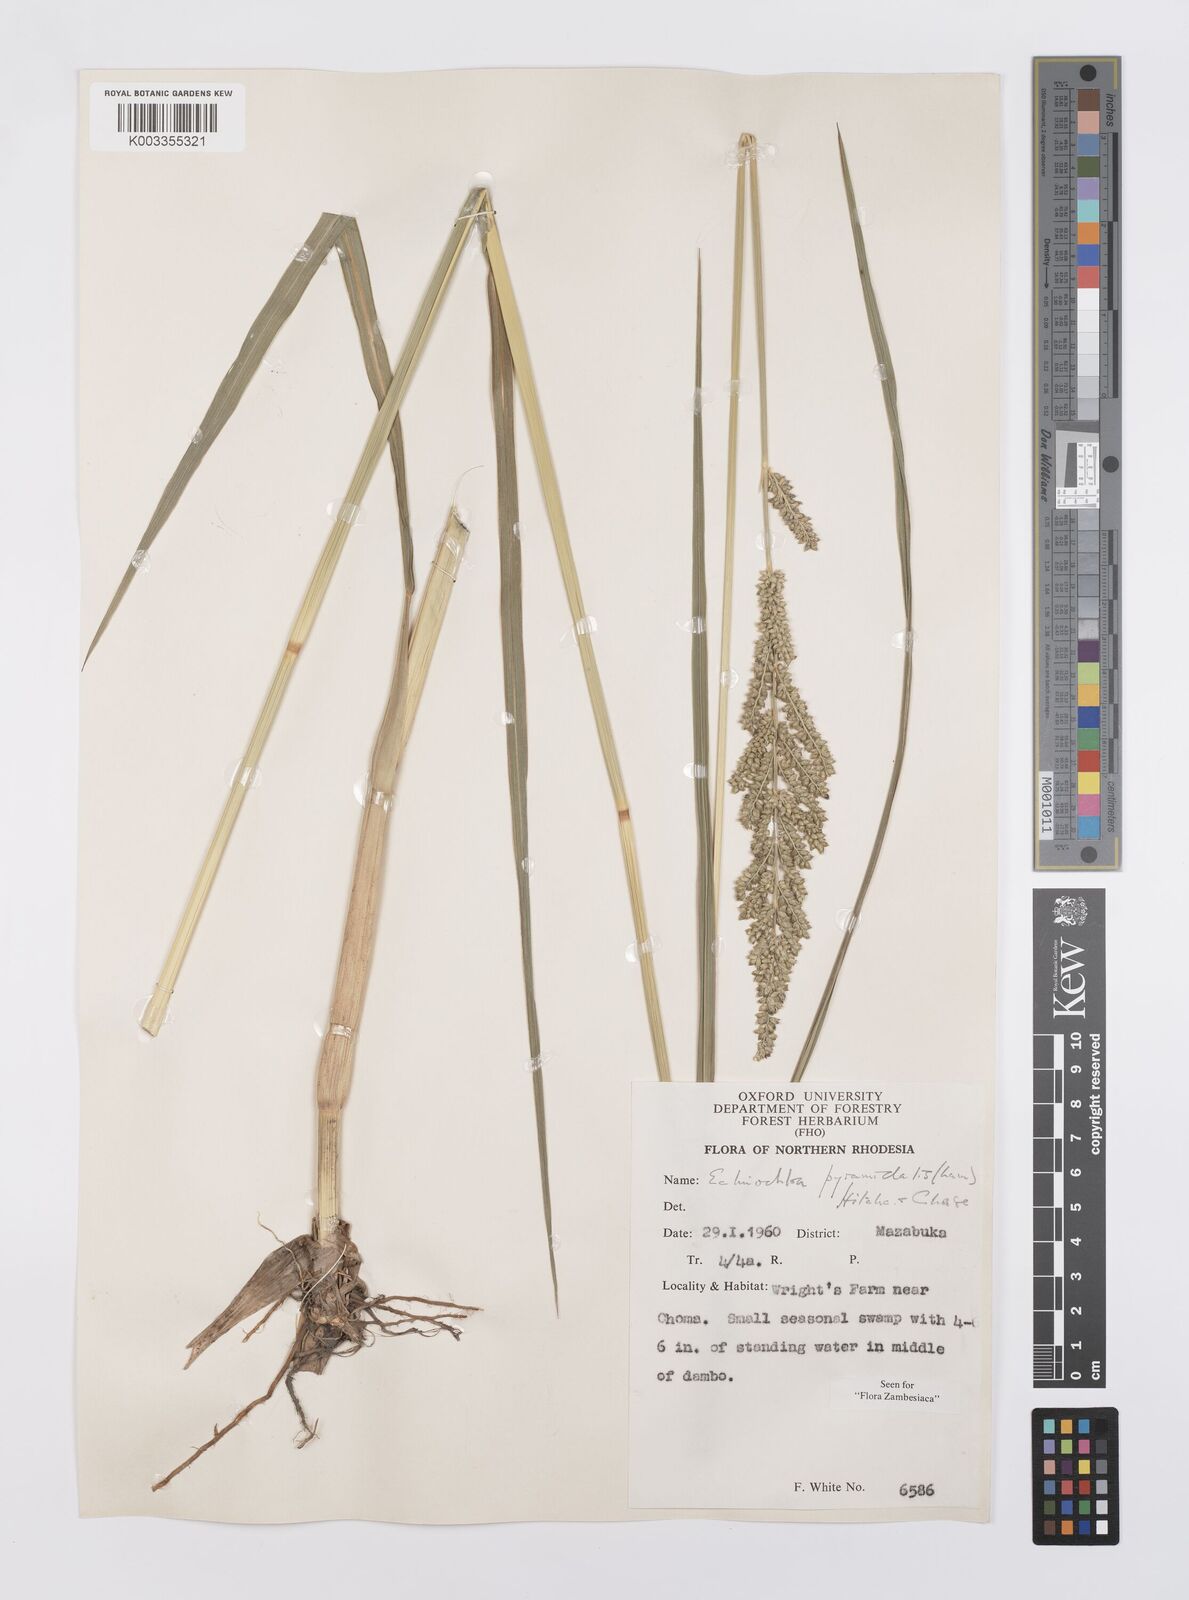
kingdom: Plantae
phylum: Tracheophyta
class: Liliopsida
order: Poales
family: Poaceae
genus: Echinochloa
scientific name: Echinochloa pyramidalis
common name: Antelope grass
